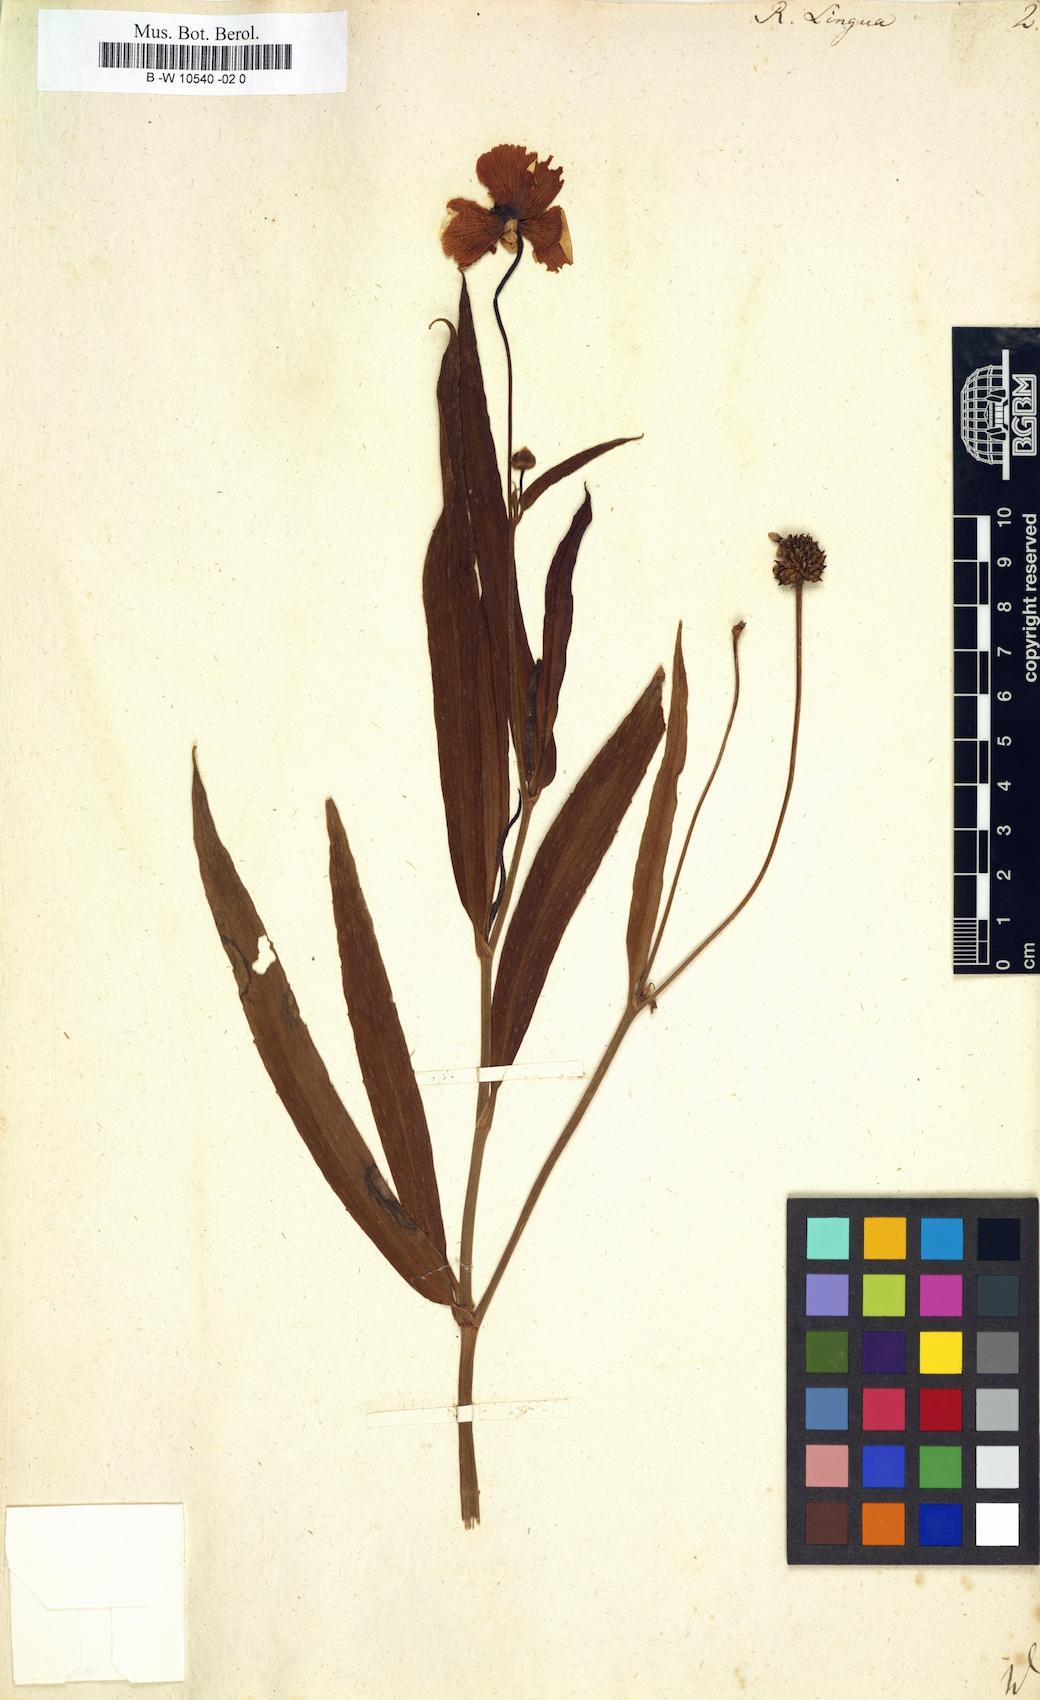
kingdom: Plantae
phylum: Tracheophyta
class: Magnoliopsida
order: Ranunculales
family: Ranunculaceae
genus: Ranunculus
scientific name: Ranunculus lingua
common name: Greater spearwort
